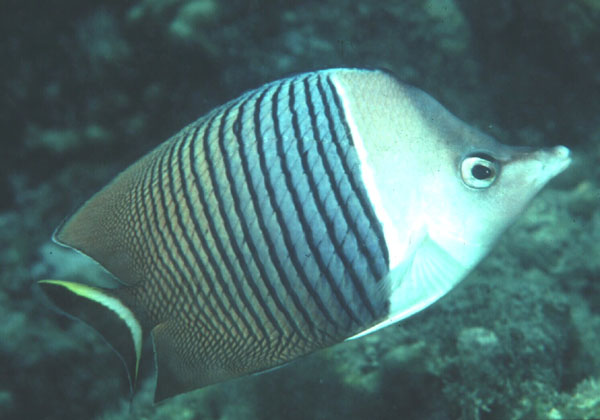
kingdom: Animalia
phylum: Chordata
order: Perciformes
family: Chaetodontidae
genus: Chaetodon
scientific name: Chaetodon mesoleucos
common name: White fronted butter flyfish
